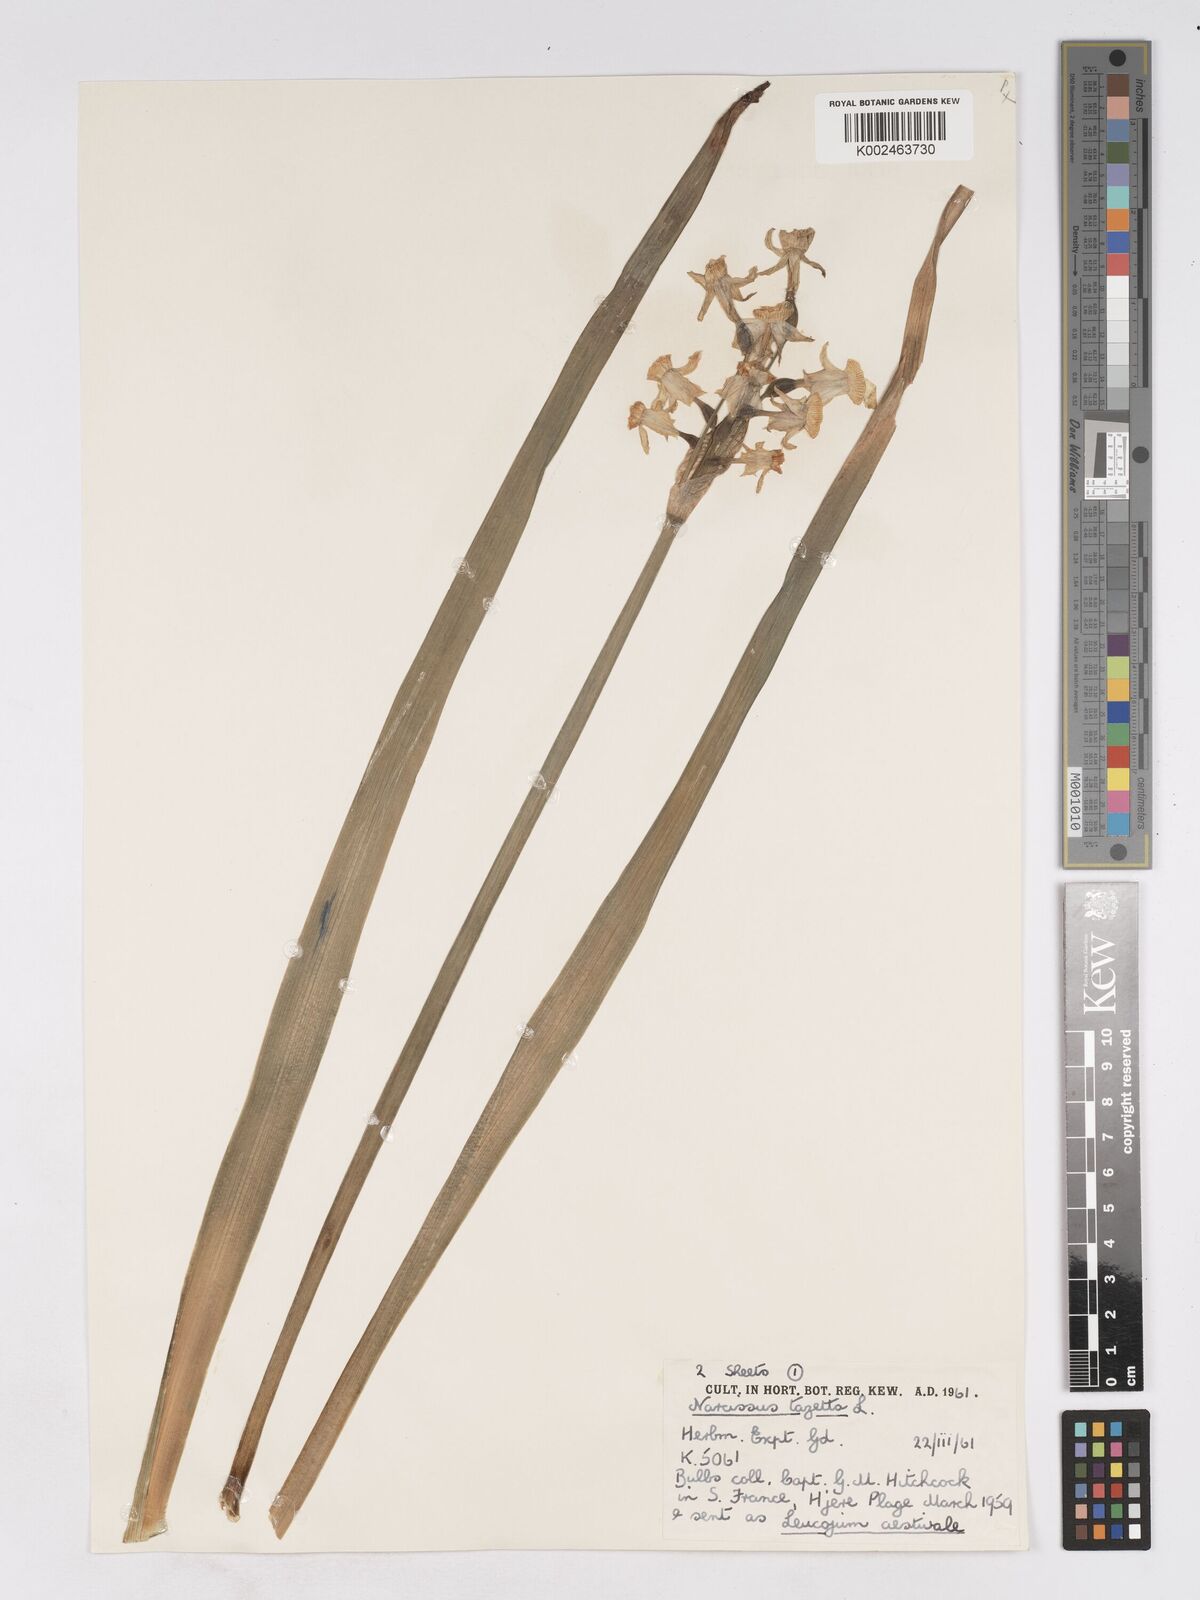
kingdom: Plantae
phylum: Tracheophyta
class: Liliopsida
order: Asparagales
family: Amaryllidaceae
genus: Narcissus
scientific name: Narcissus tazetta
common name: Bunch-flowered daffodil
